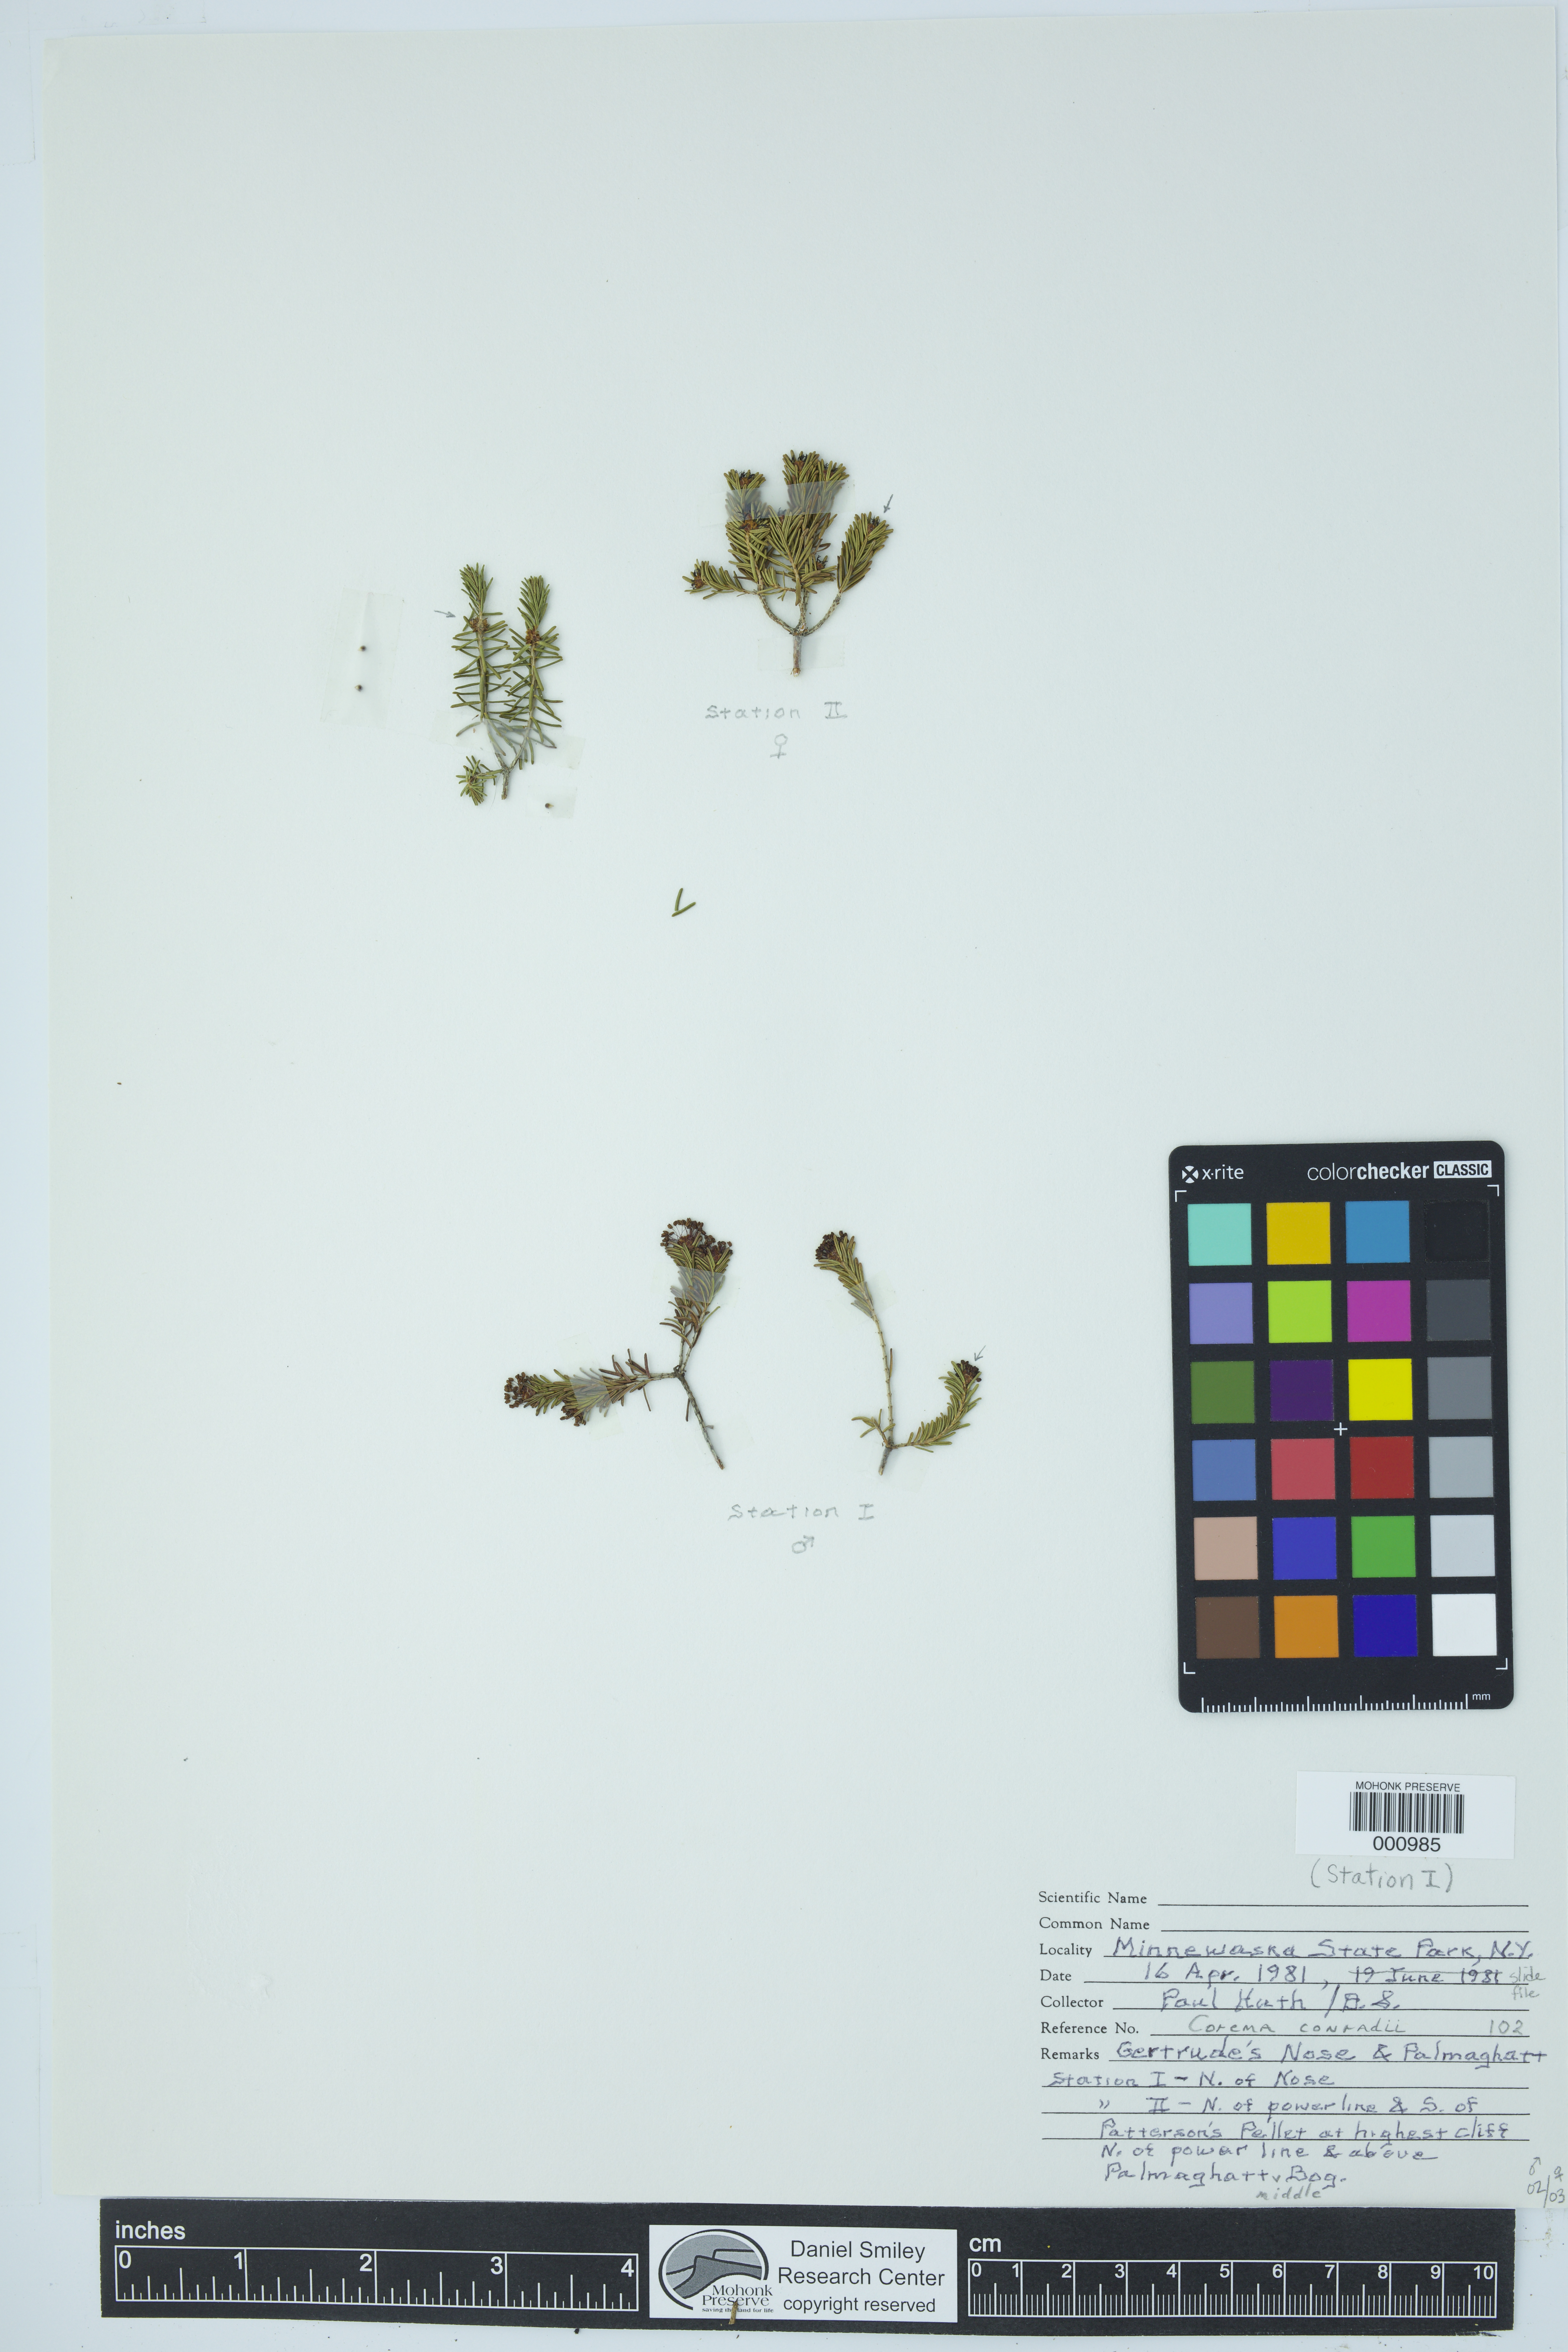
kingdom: Plantae
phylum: Tracheophyta
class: Magnoliopsida
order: Ericales
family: Ericaceae
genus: Corema
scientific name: Corema conradii
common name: Broom-crowberry
